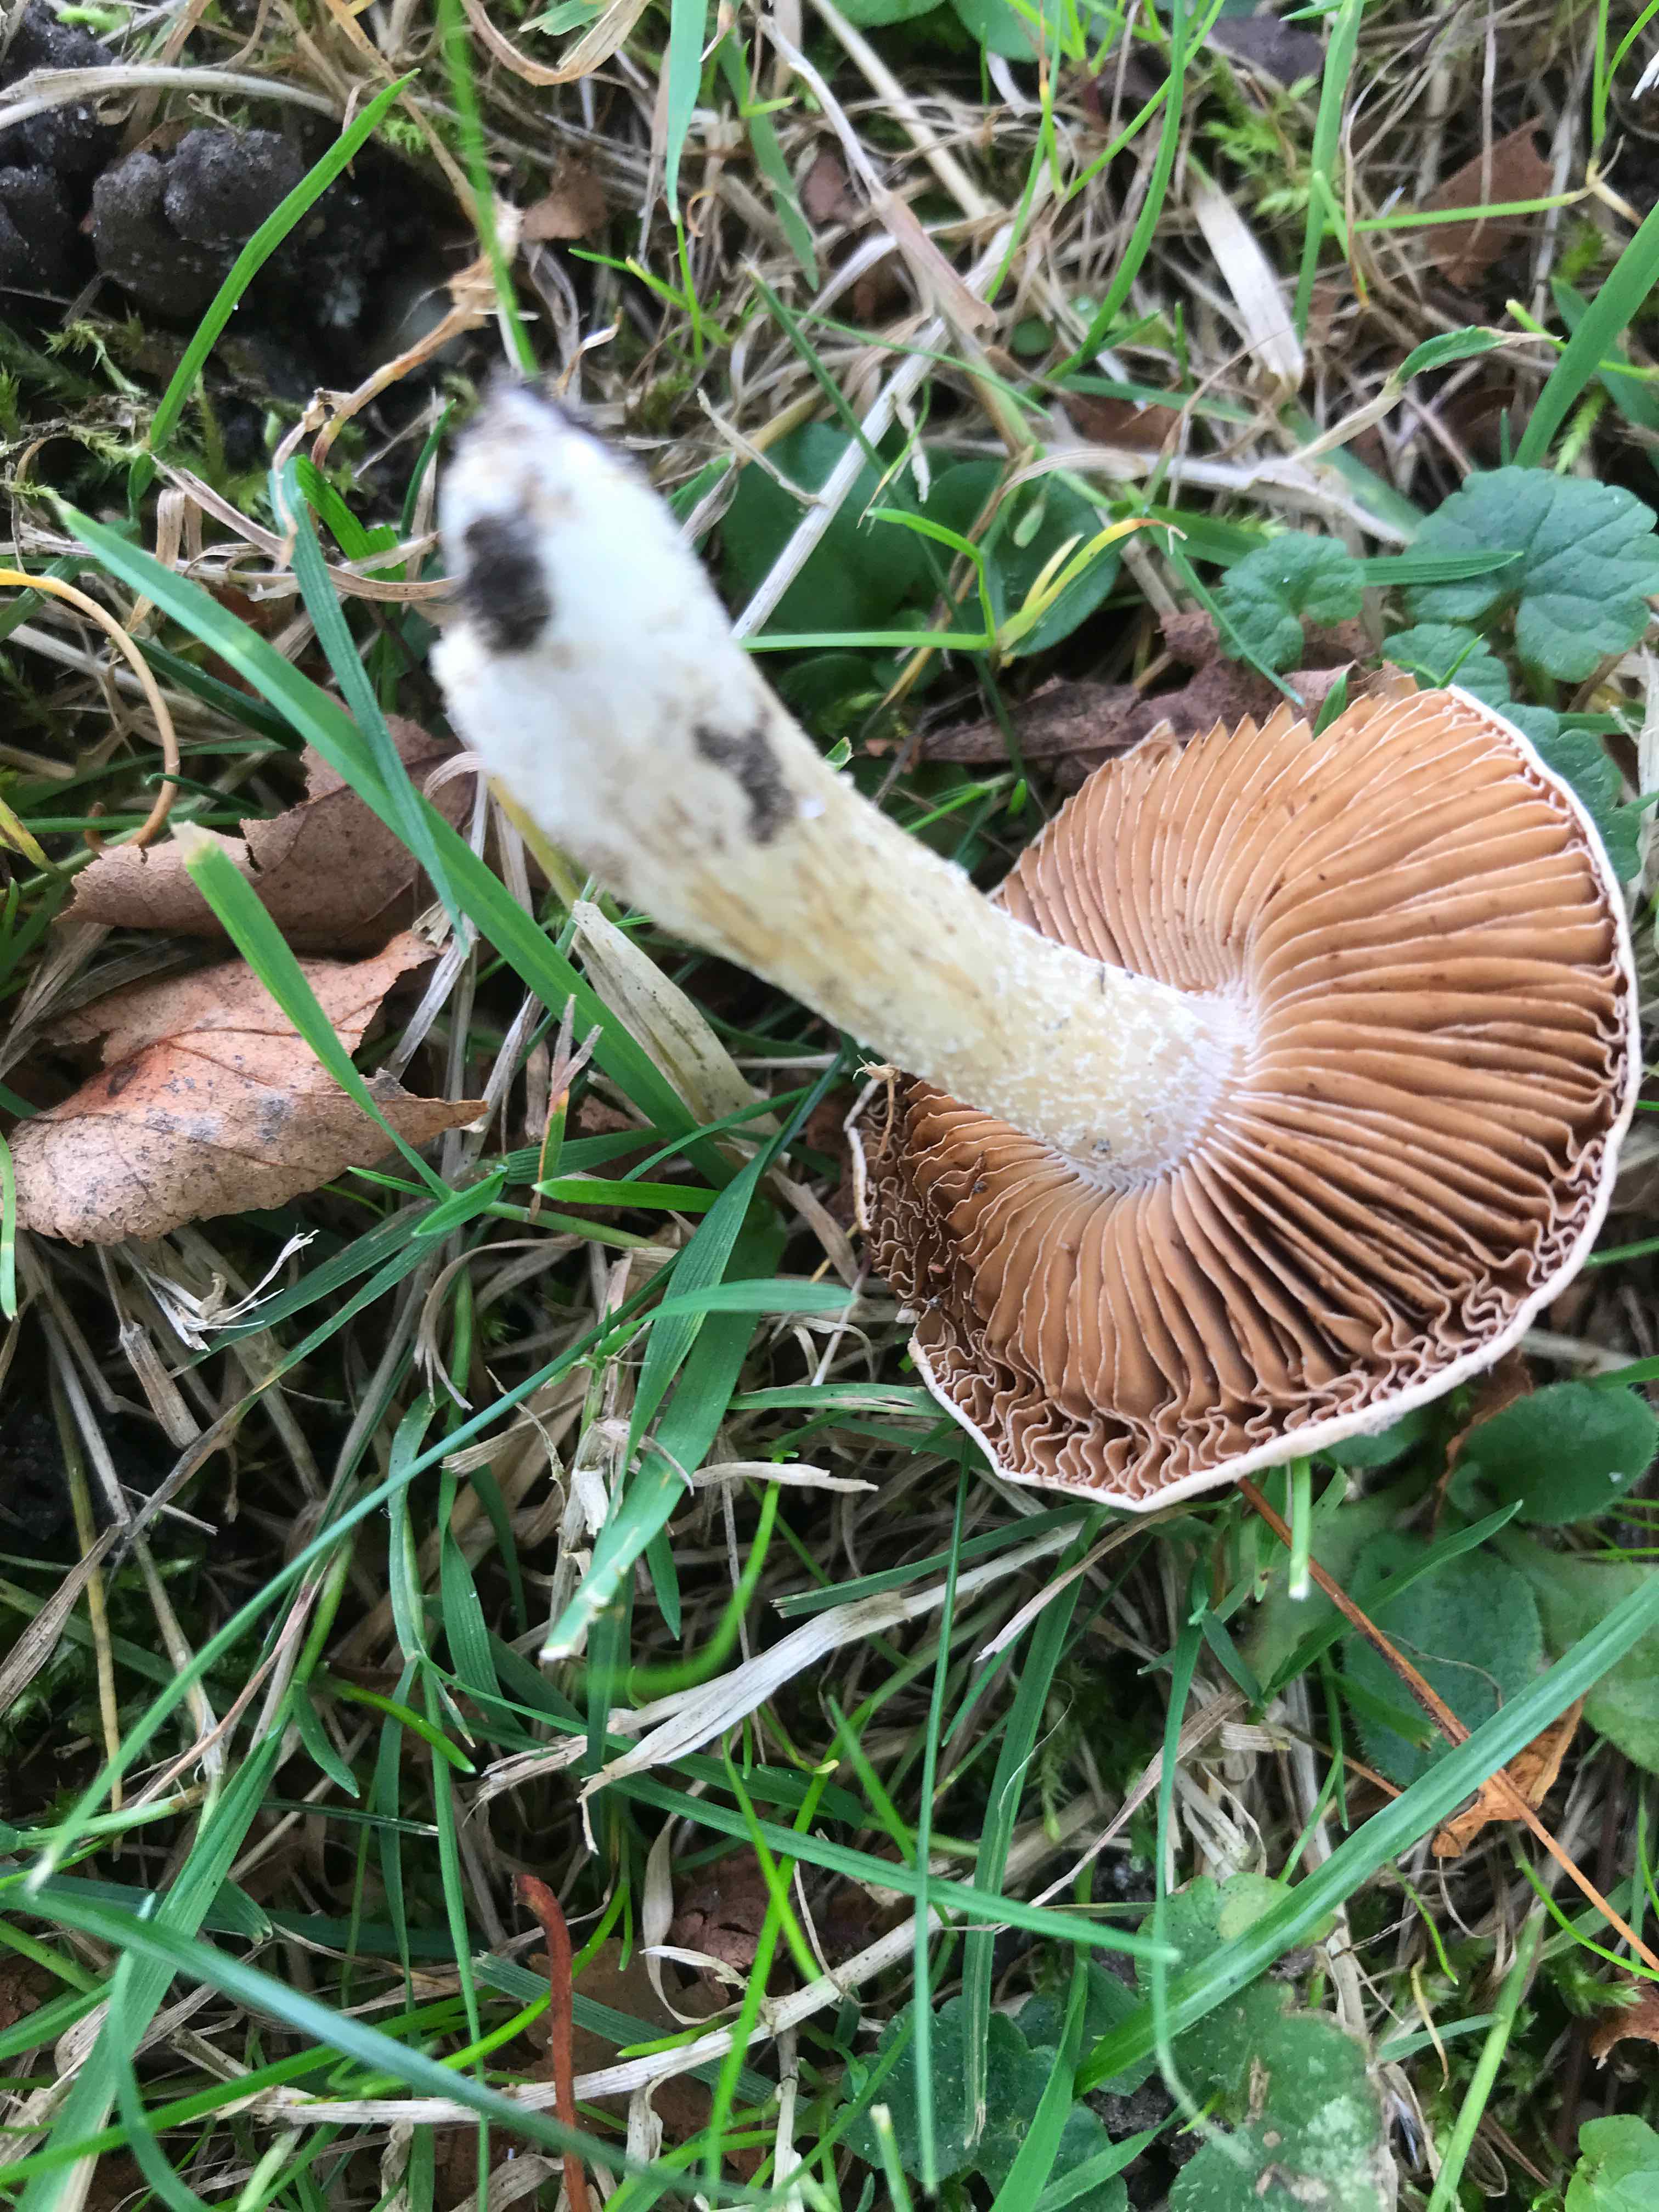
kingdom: Fungi
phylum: Basidiomycota
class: Agaricomycetes
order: Agaricales
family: Hymenogastraceae
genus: Hebeloma
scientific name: Hebeloma
